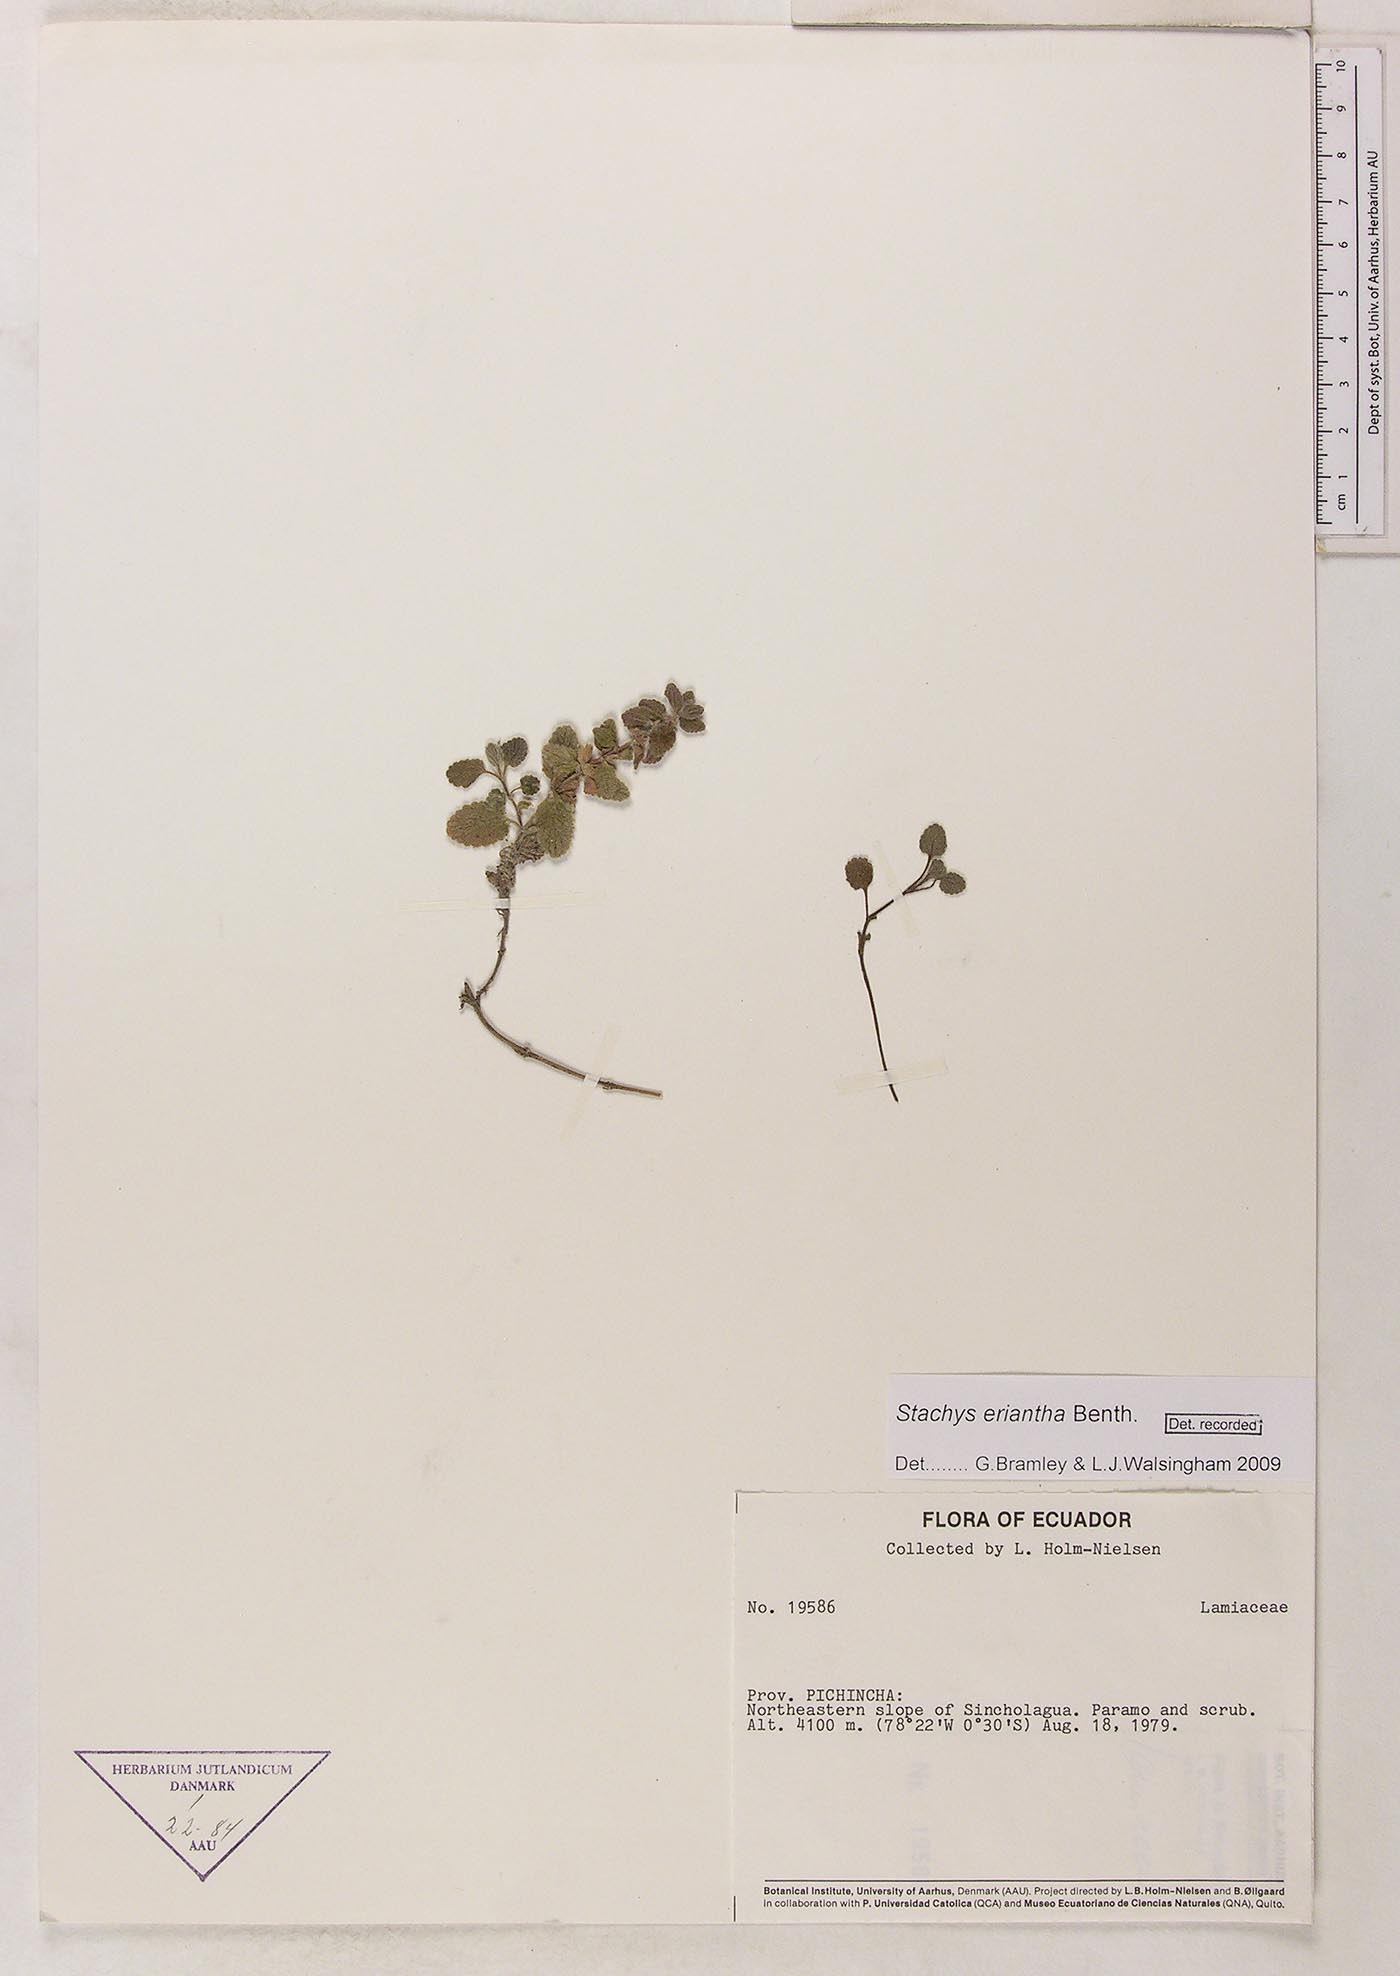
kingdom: Plantae
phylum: Tracheophyta
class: Magnoliopsida
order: Lamiales
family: Lamiaceae
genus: Stachys
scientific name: Stachys eriantha
